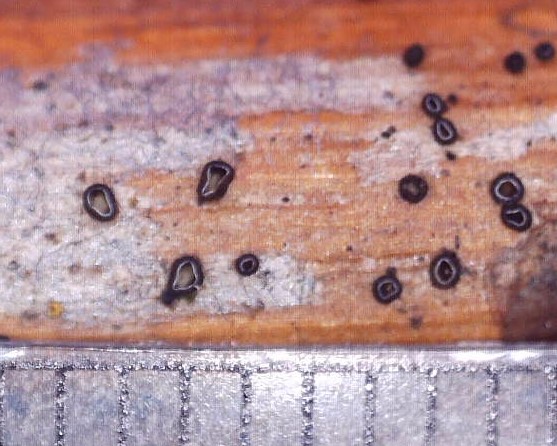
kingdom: Fungi
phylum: Ascomycota
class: Leotiomycetes
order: Helotiales
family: Dermateaceae
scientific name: Dermateaceae
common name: gråskivefamilien
